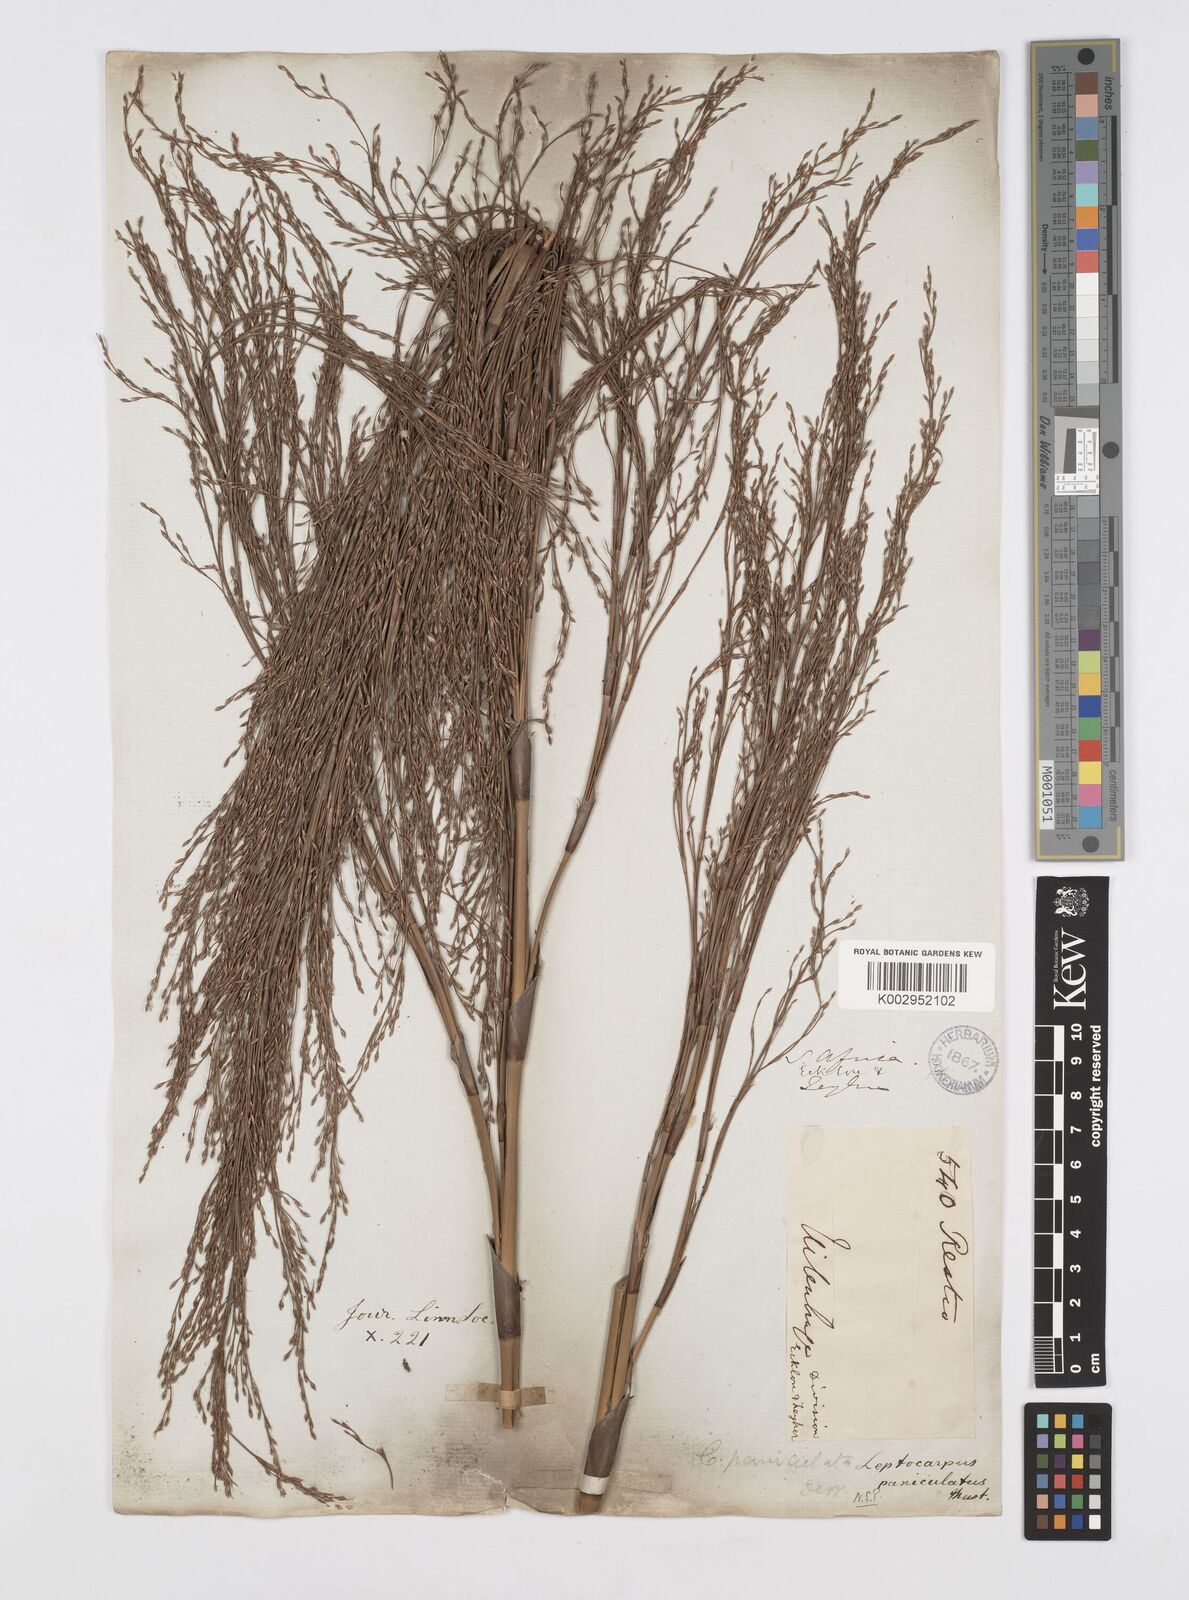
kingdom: Plantae
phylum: Tracheophyta
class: Liliopsida
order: Poales
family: Restionaceae
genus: Restio
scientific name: Restio paniculatus
